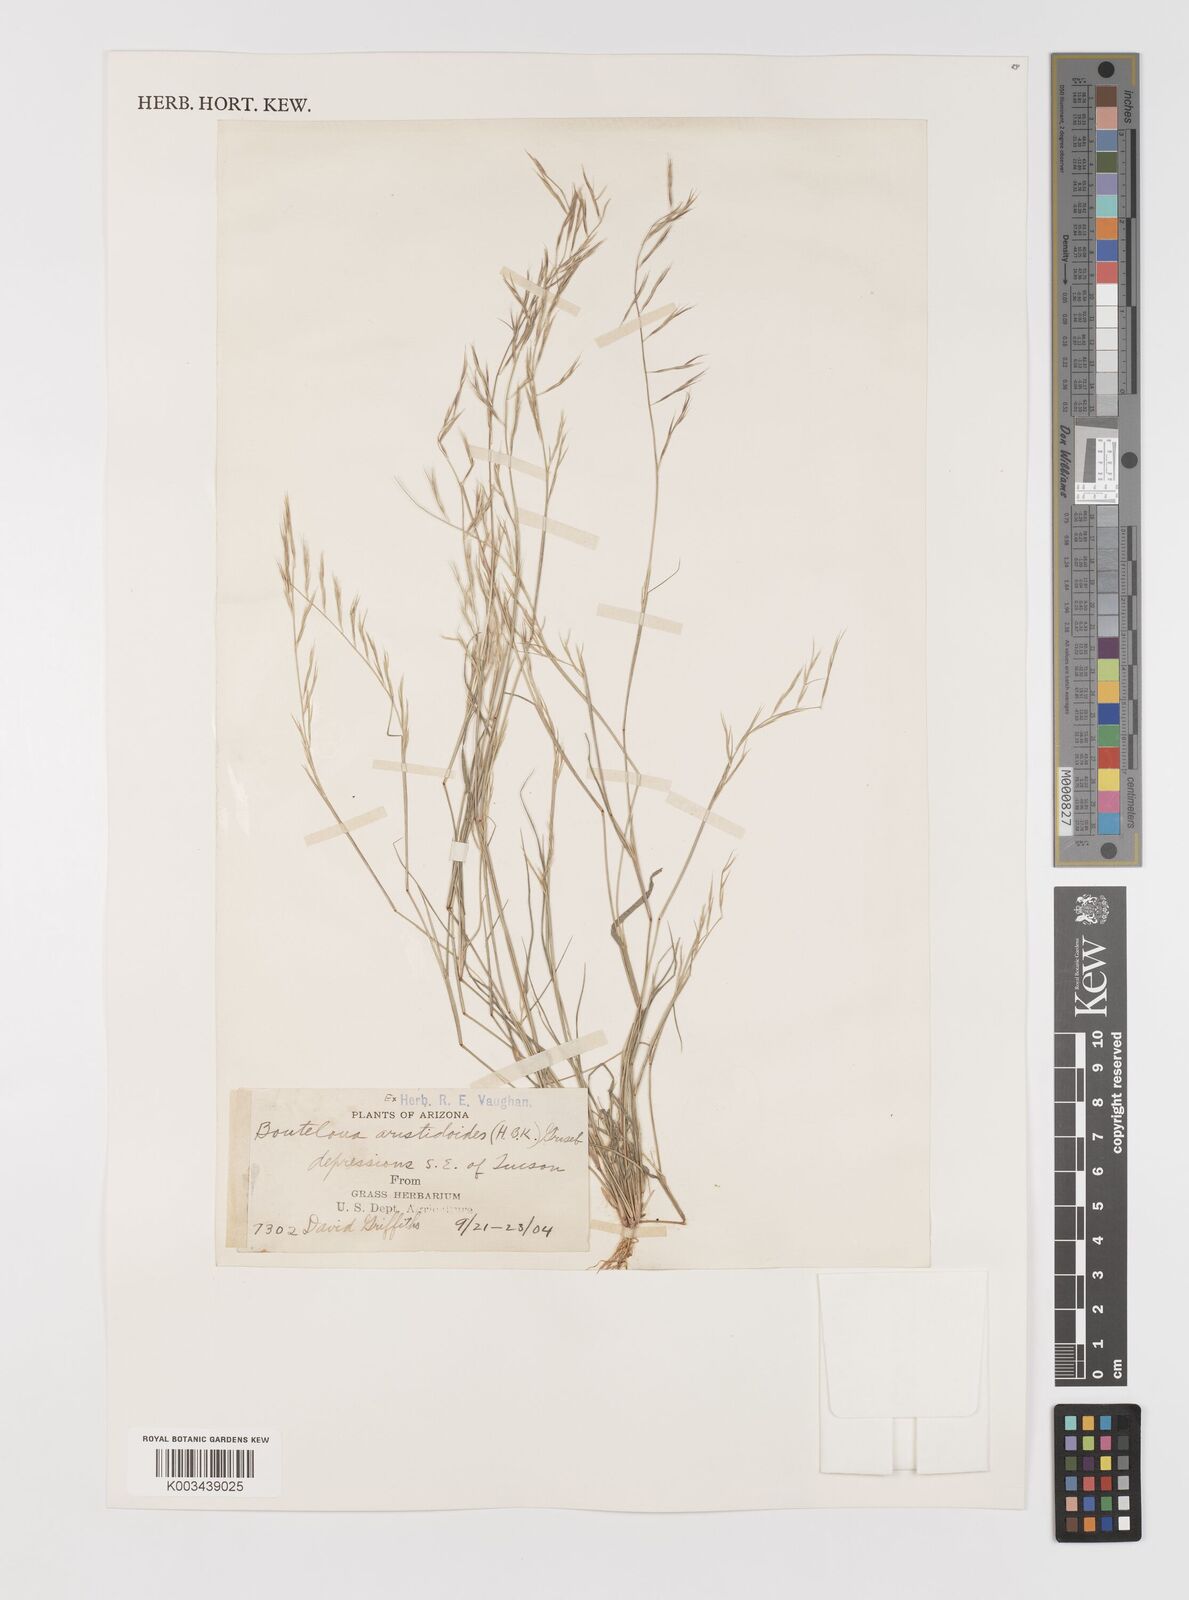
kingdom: Plantae
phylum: Tracheophyta
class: Liliopsida
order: Poales
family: Poaceae
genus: Bouteloua
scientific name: Bouteloua aristidoides
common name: Needle grama
